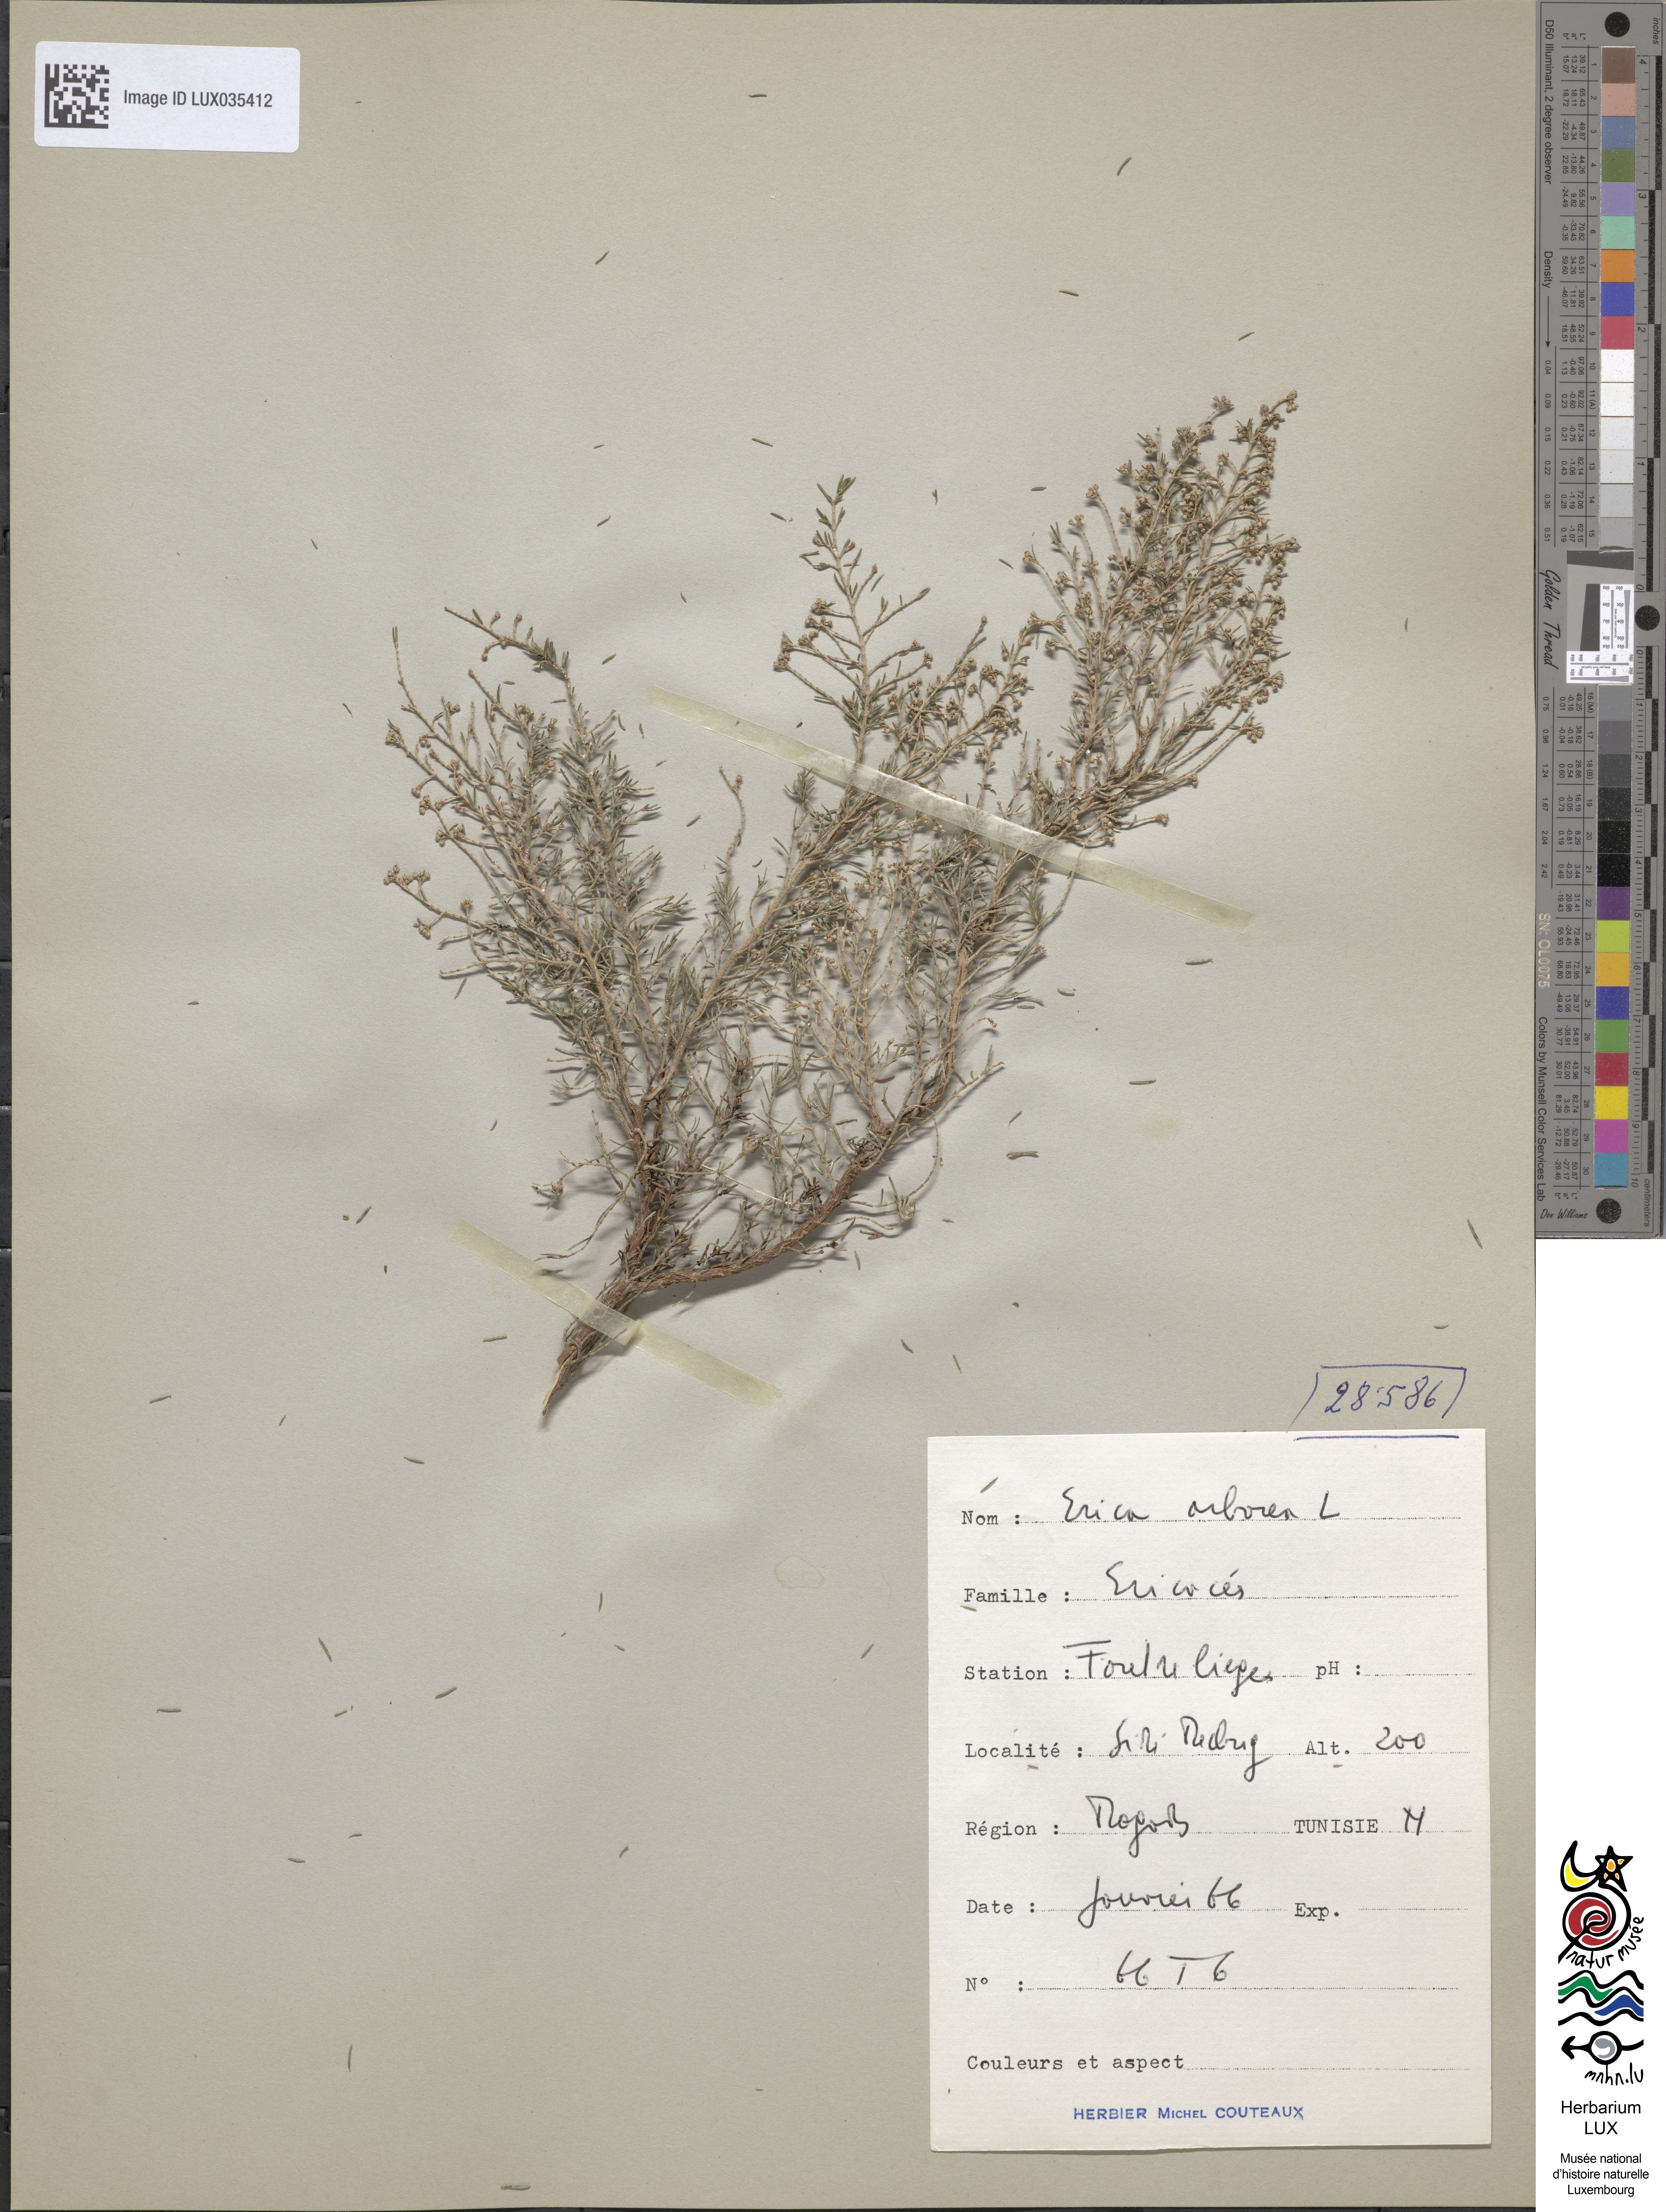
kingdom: Plantae
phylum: Tracheophyta
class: Magnoliopsida
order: Ericales
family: Ericaceae
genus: Erica
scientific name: Erica arborea
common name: Tree heath
